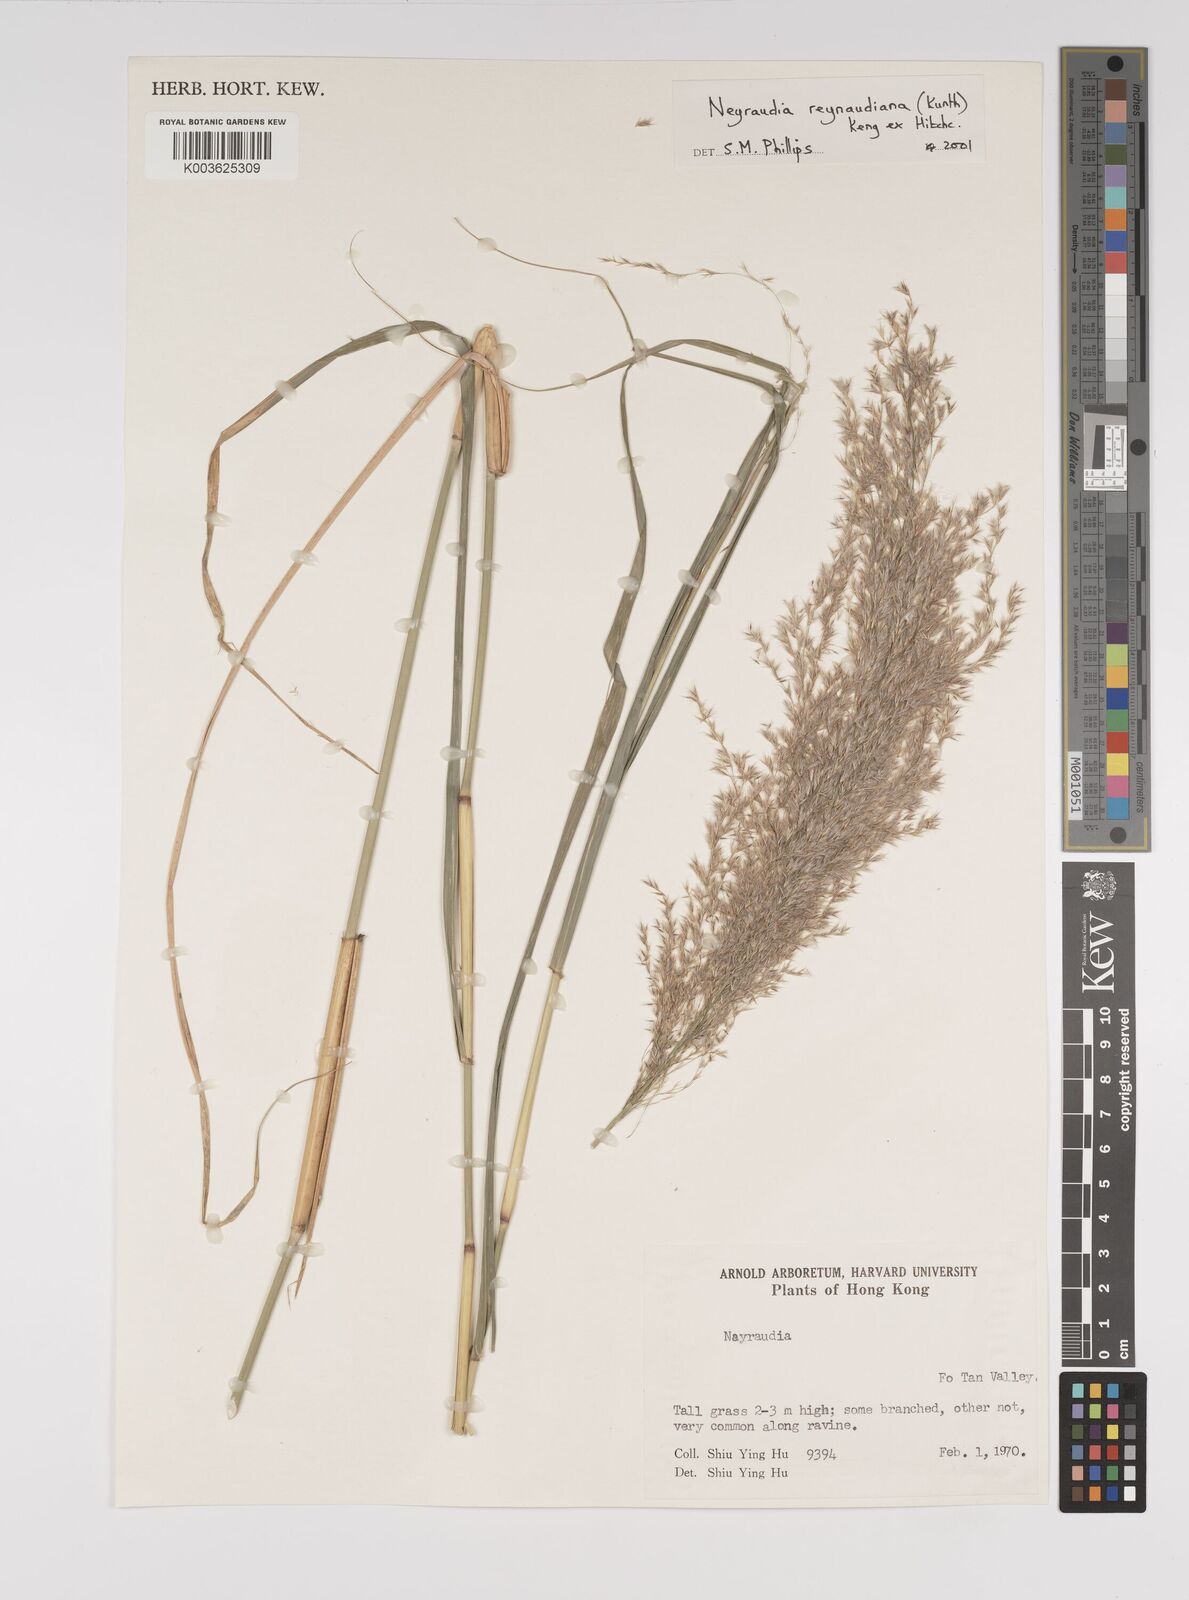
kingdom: Plantae
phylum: Tracheophyta
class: Liliopsida
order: Poales
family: Poaceae
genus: Neyraudia
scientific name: Neyraudia reynaudiana
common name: Silkreed
